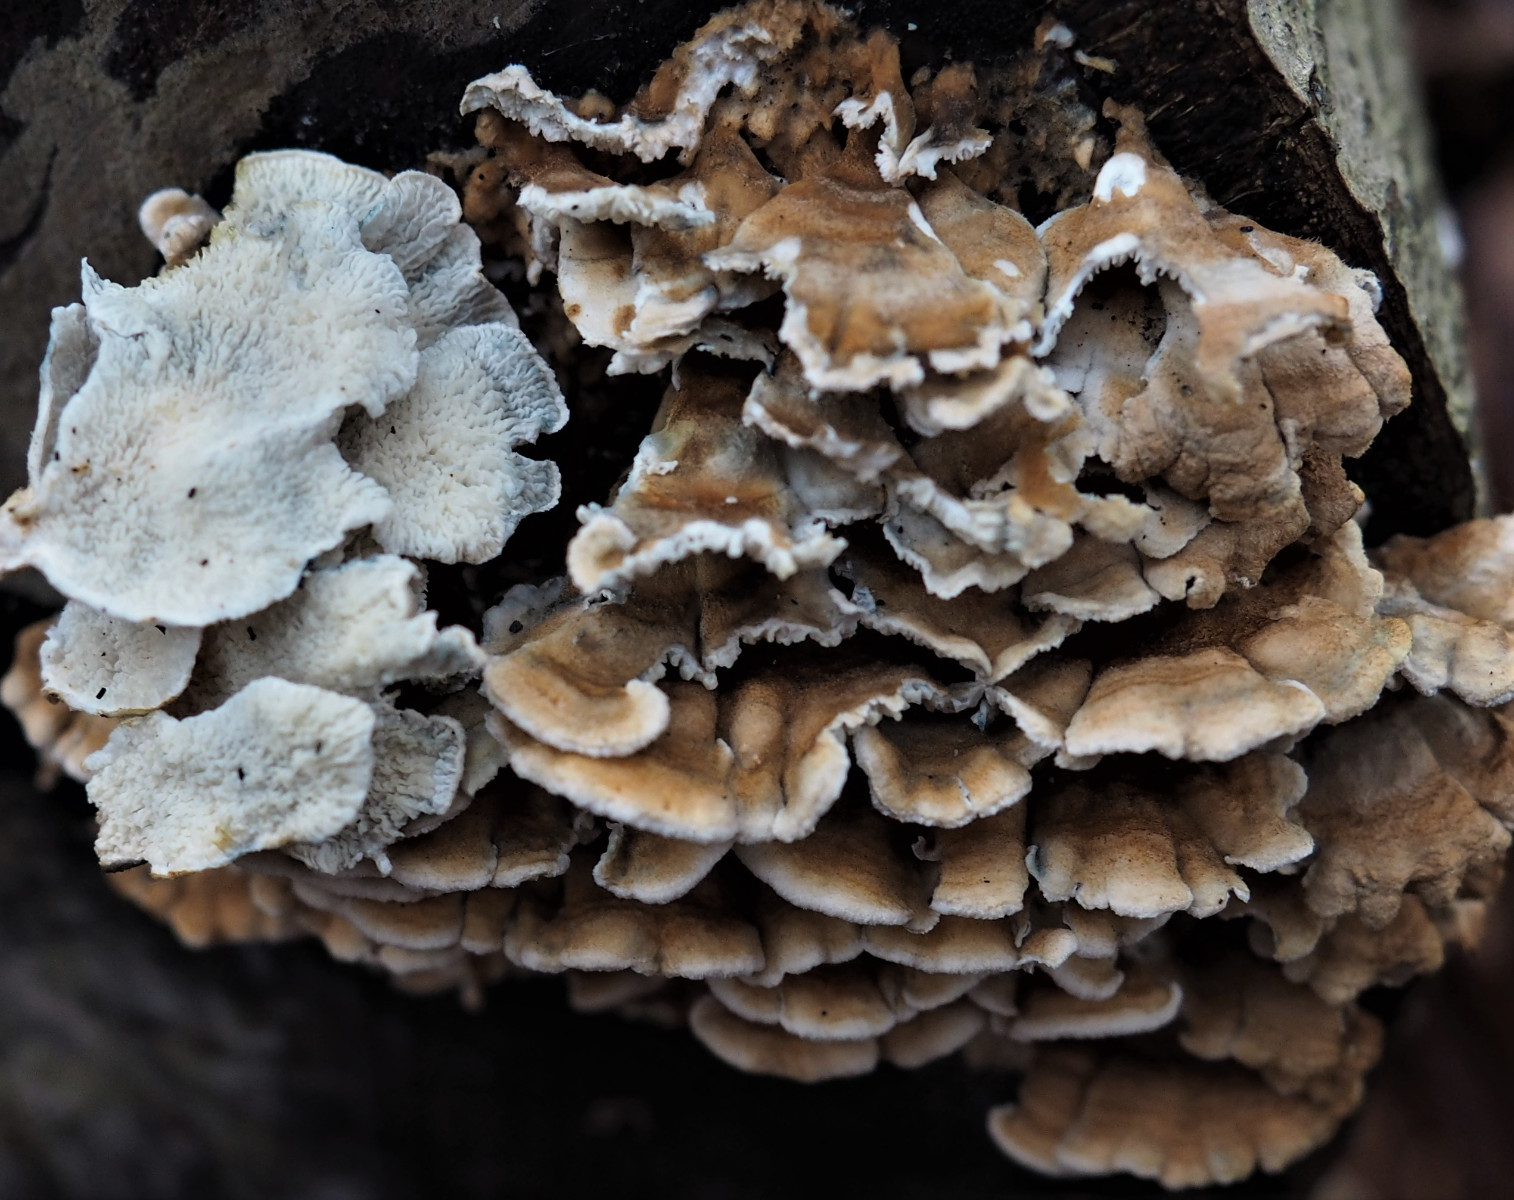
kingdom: Fungi
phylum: Basidiomycota
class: Agaricomycetes
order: Amylocorticiales
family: Amylocorticiaceae
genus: Plicaturopsis
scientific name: Plicaturopsis crispa
